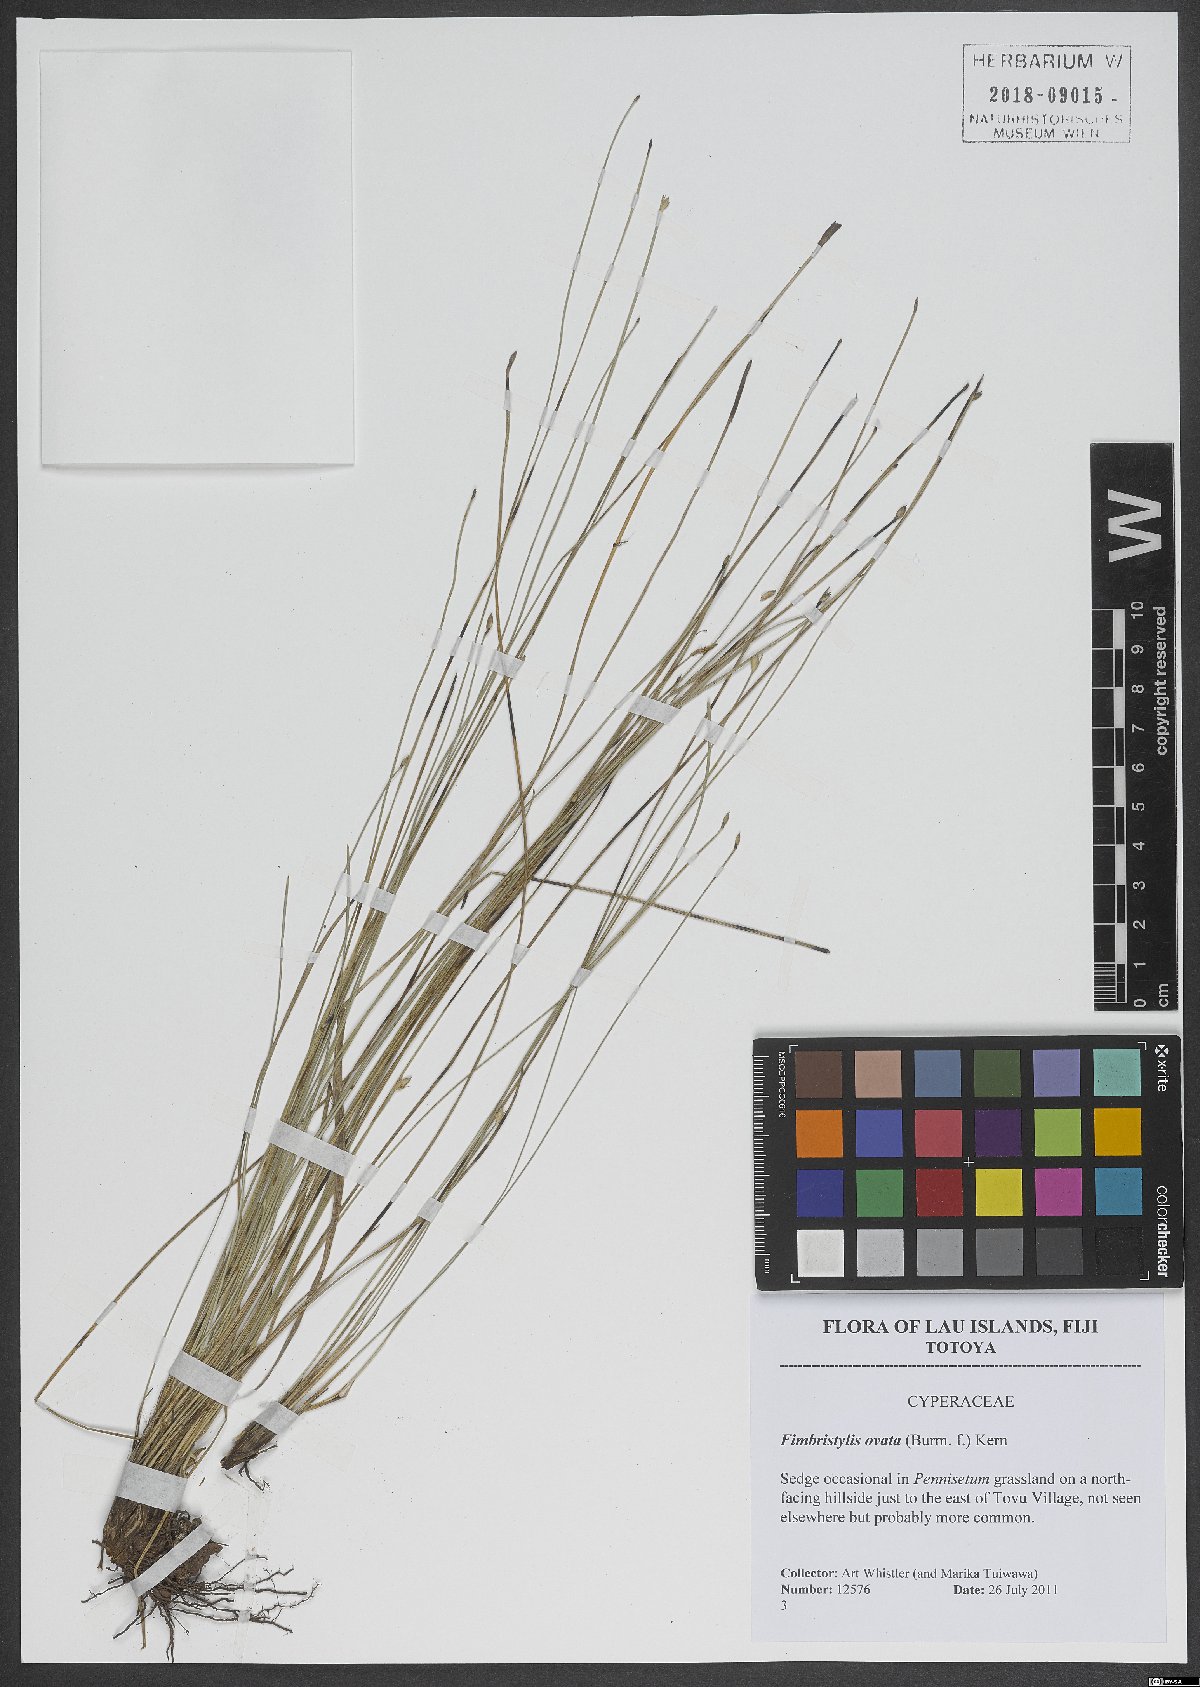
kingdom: Plantae
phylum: Tracheophyta
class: Liliopsida
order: Poales
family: Cyperaceae
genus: Abildgaardia
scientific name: Abildgaardia ovata
